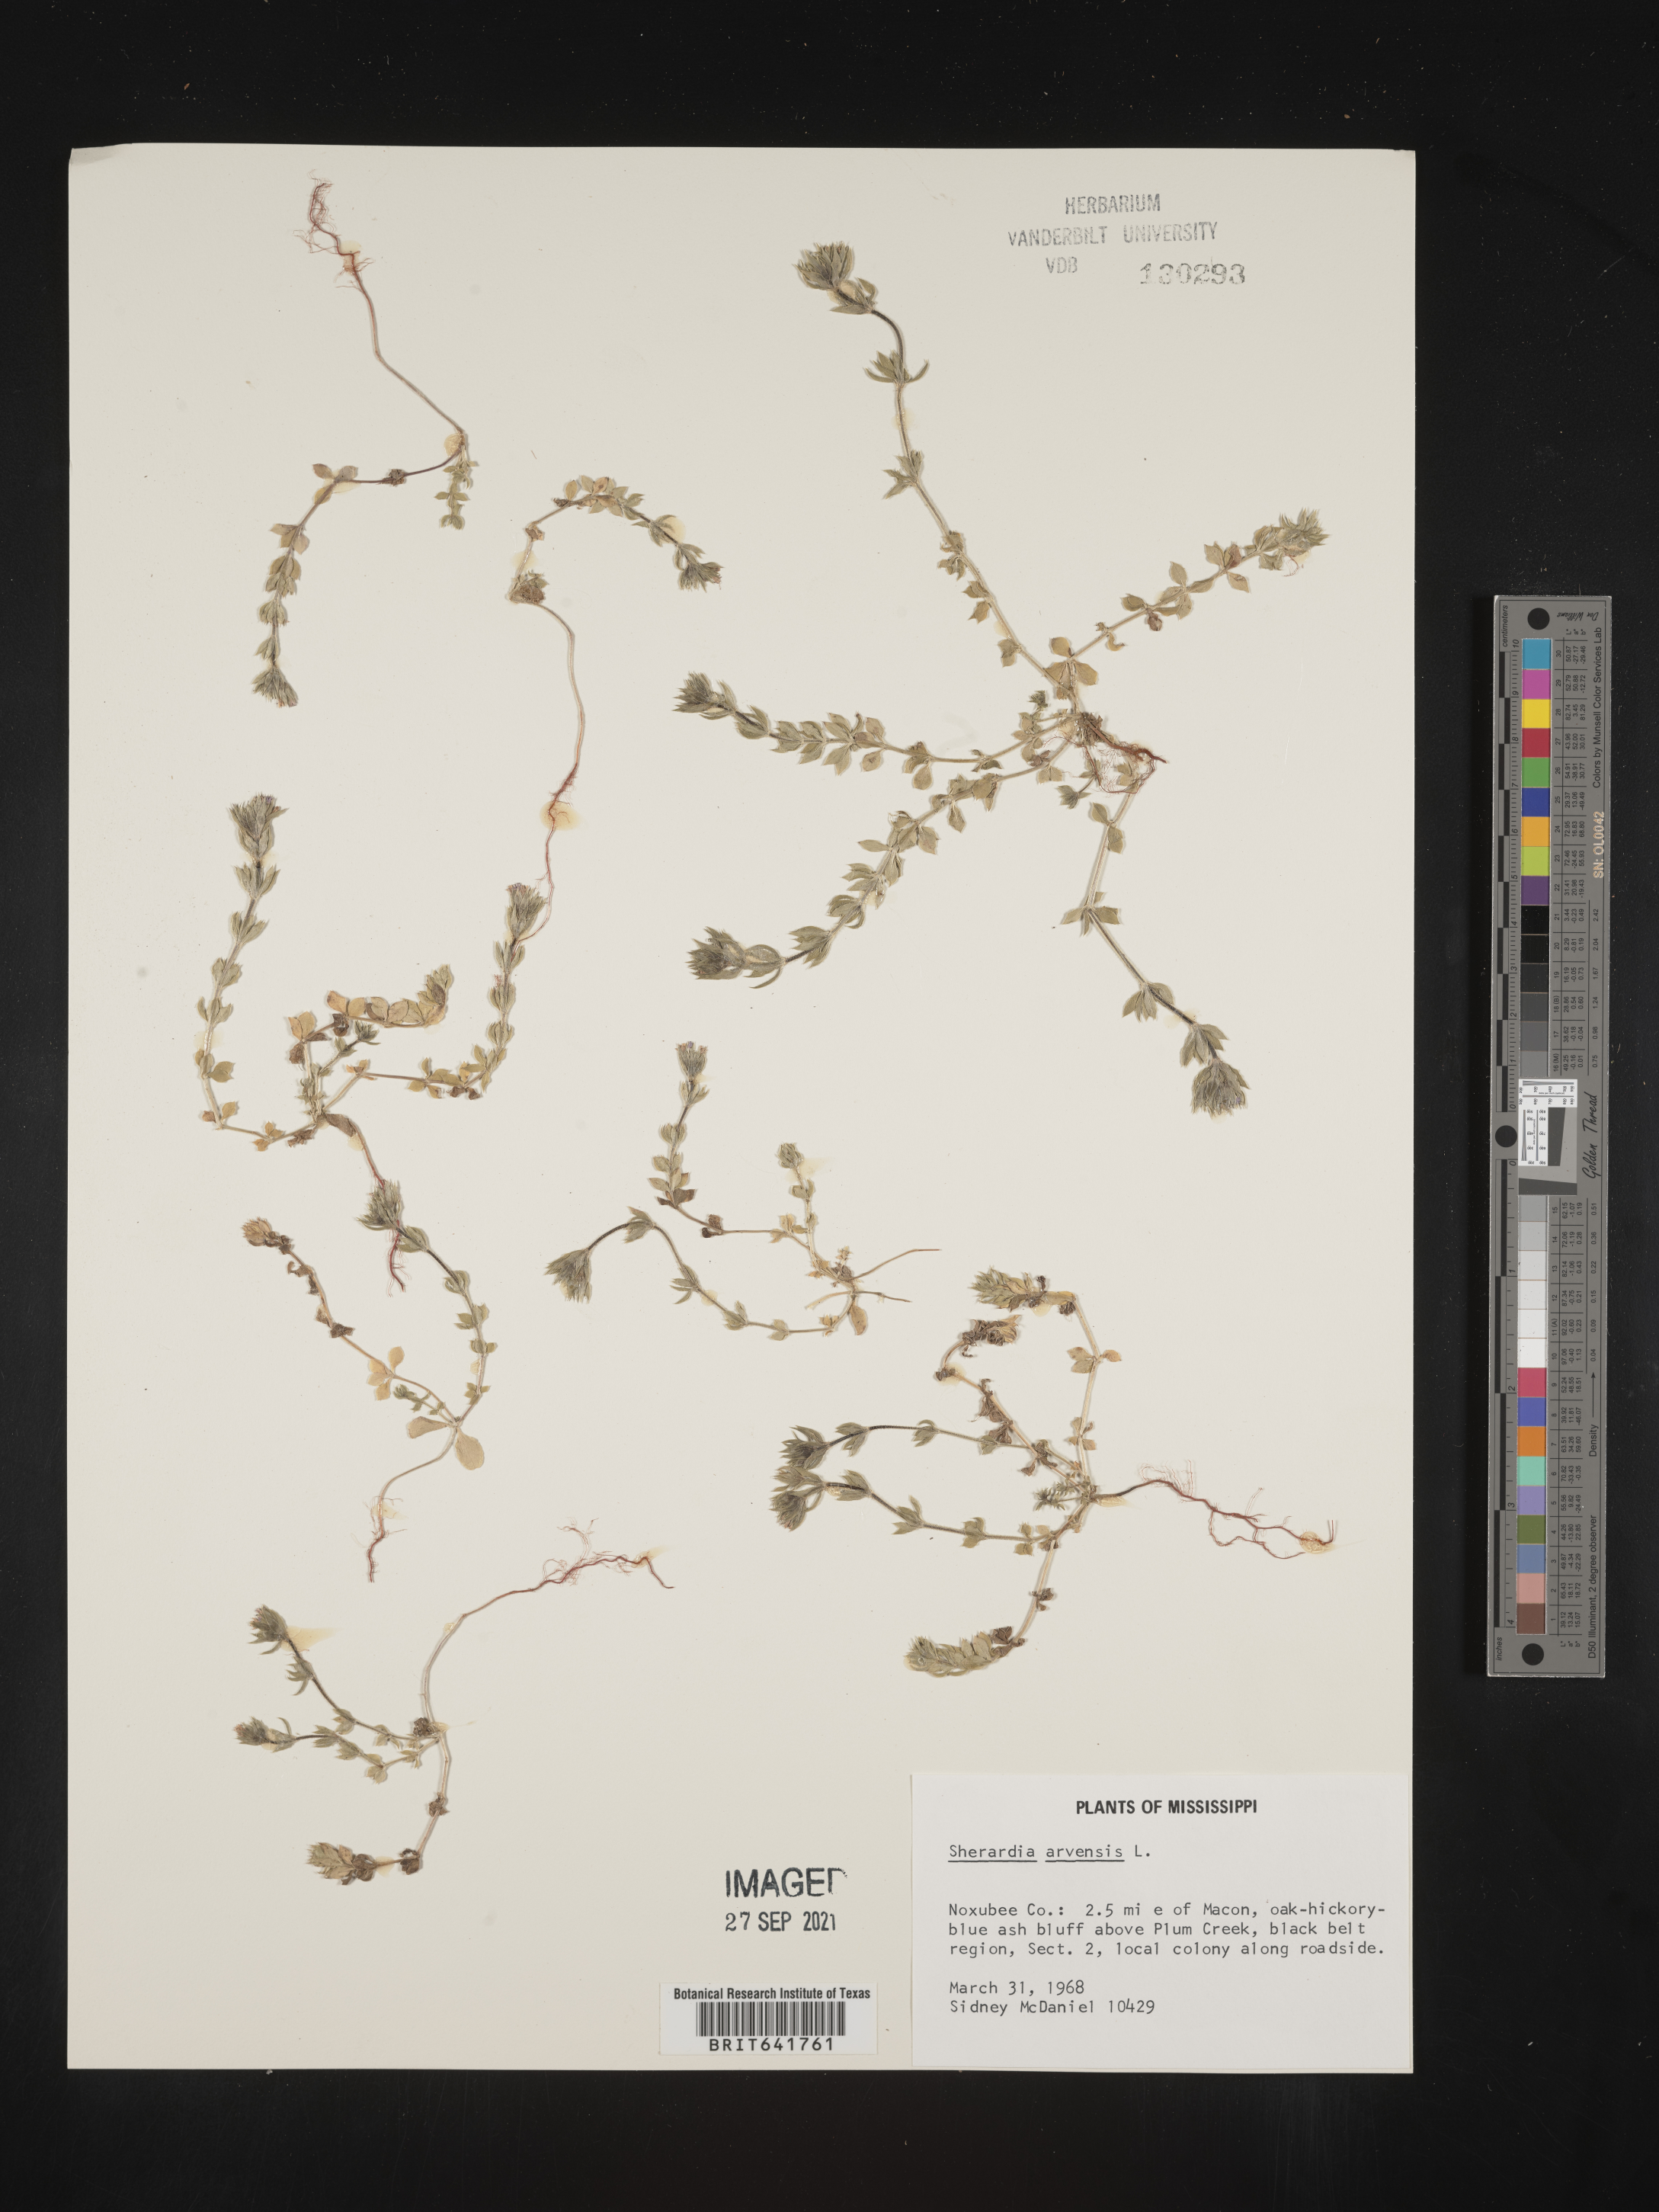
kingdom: Plantae
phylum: Tracheophyta
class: Magnoliopsida
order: Gentianales
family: Rubiaceae
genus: Sherardia
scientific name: Sherardia arvensis
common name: Field madder
